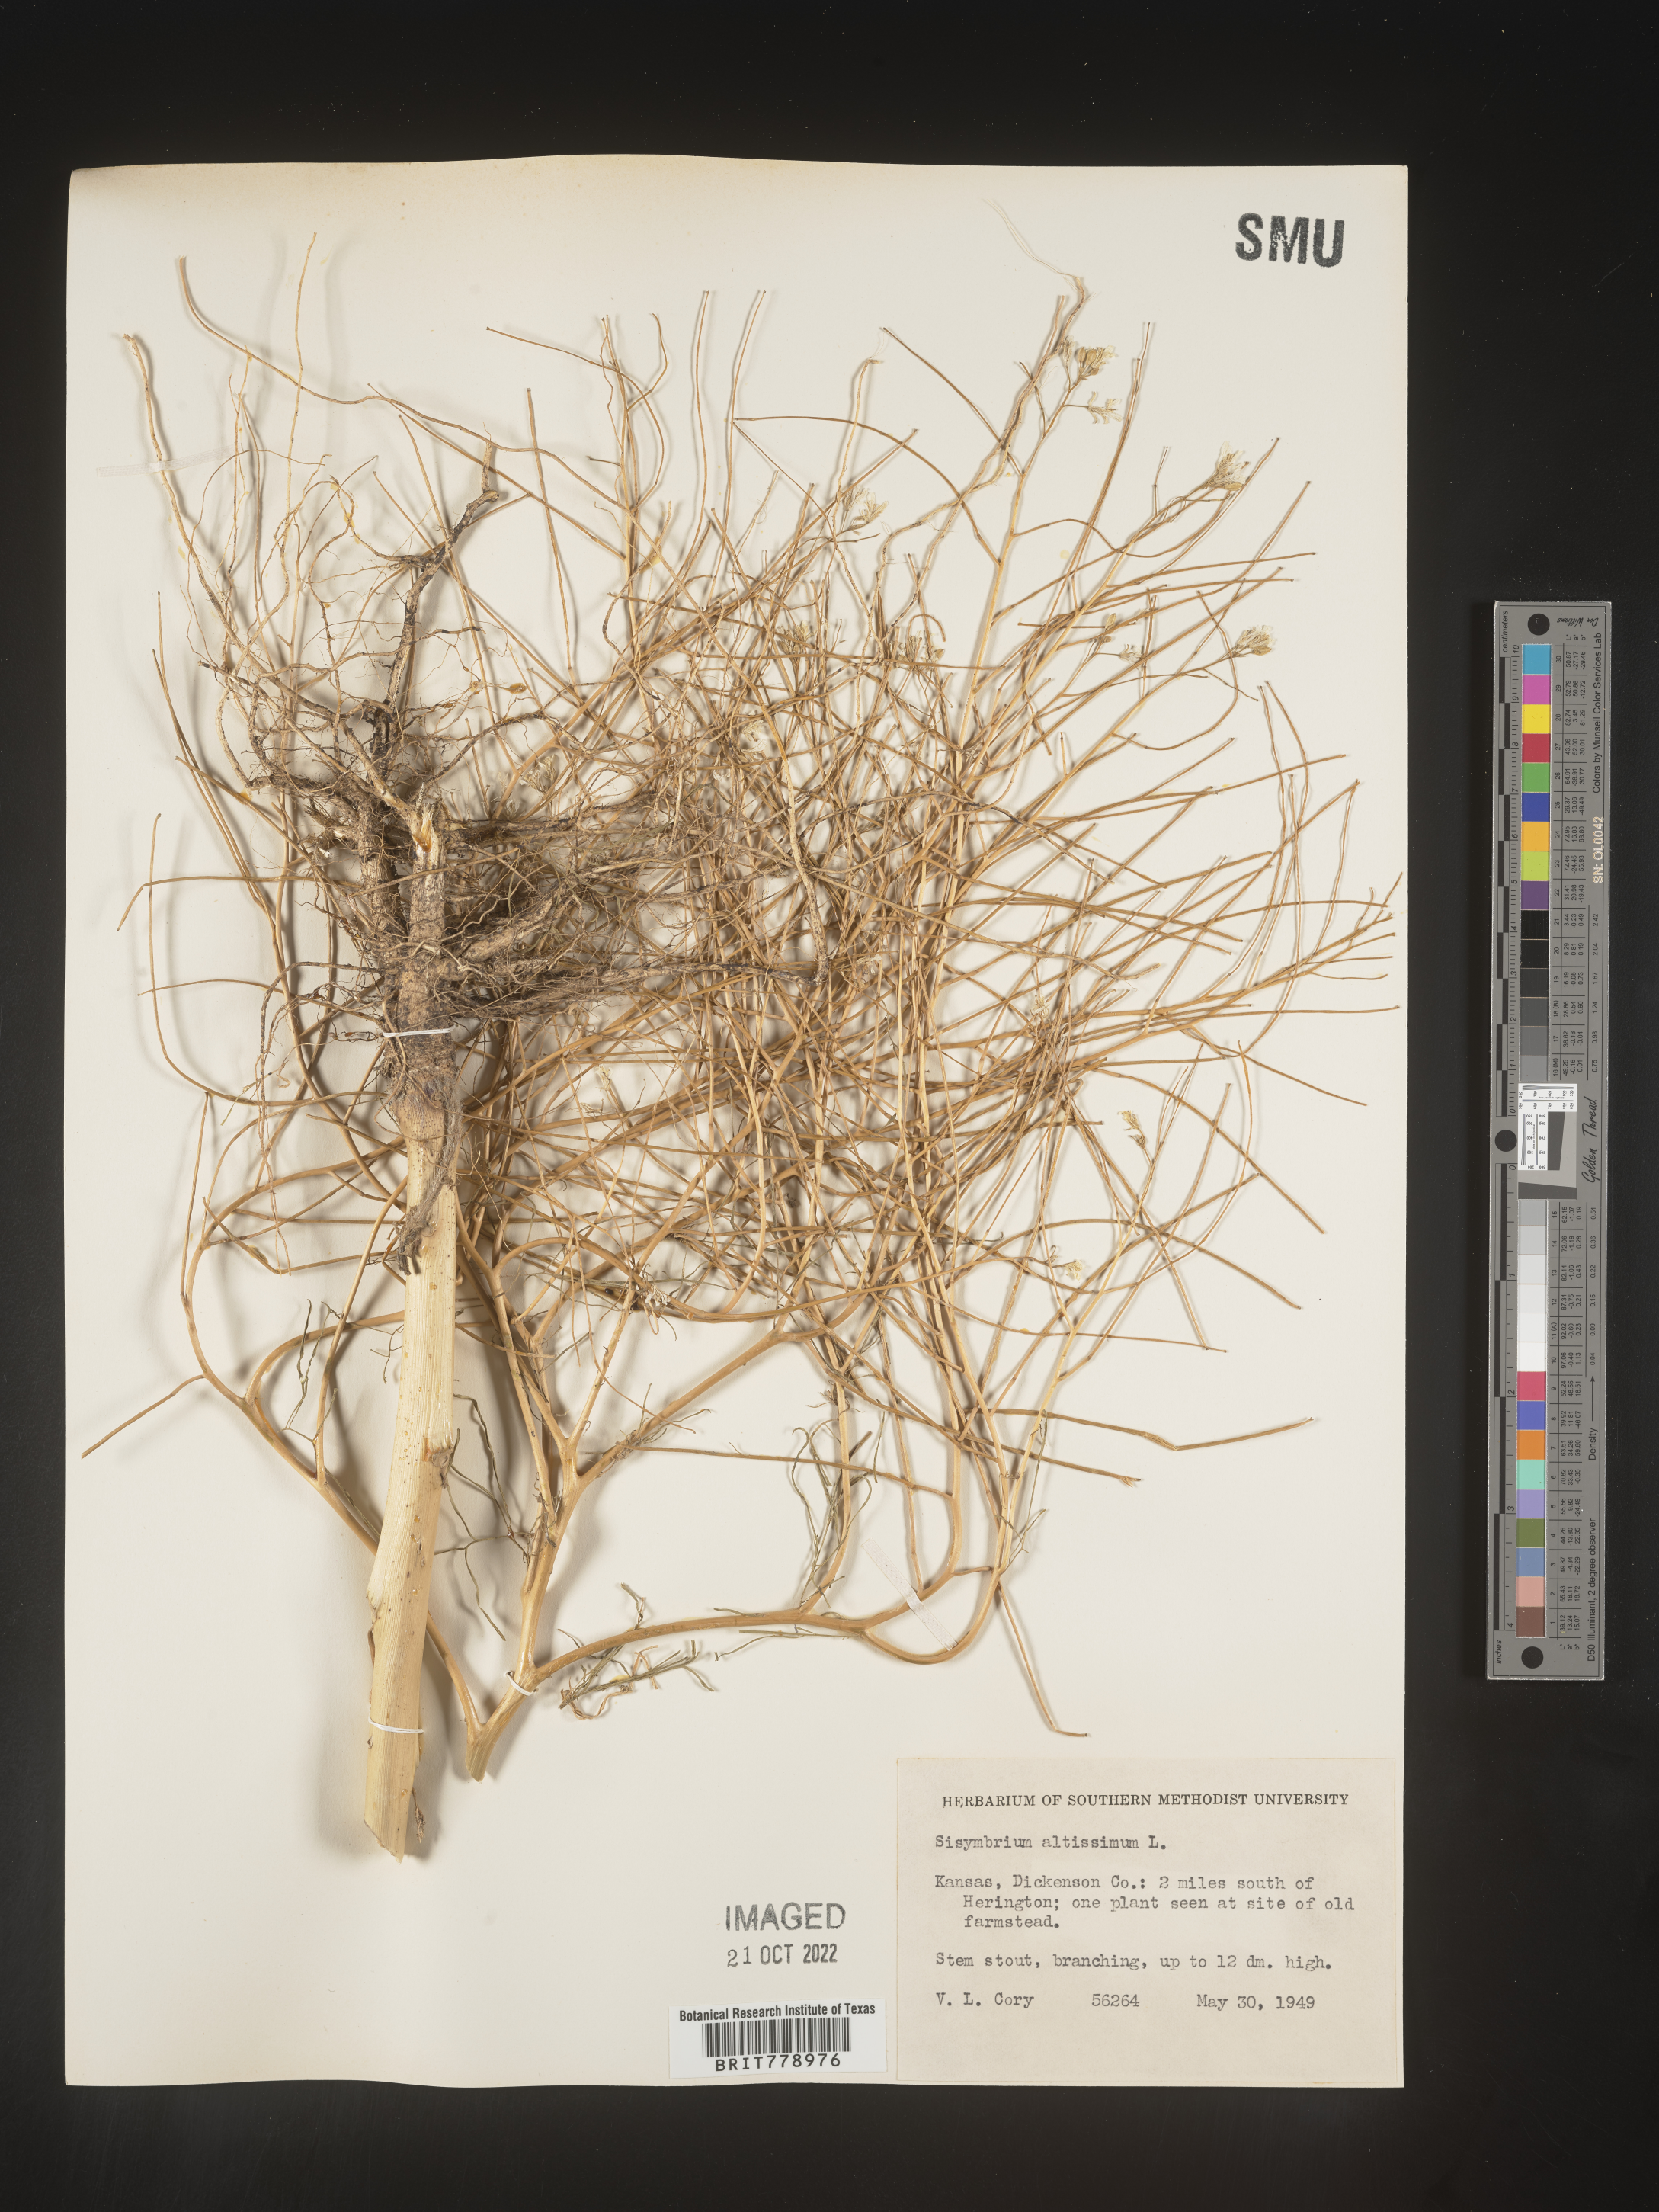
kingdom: Plantae
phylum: Tracheophyta
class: Magnoliopsida
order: Brassicales
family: Brassicaceae
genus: Sisymbrium
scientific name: Sisymbrium altissimum
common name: Tall rocket
